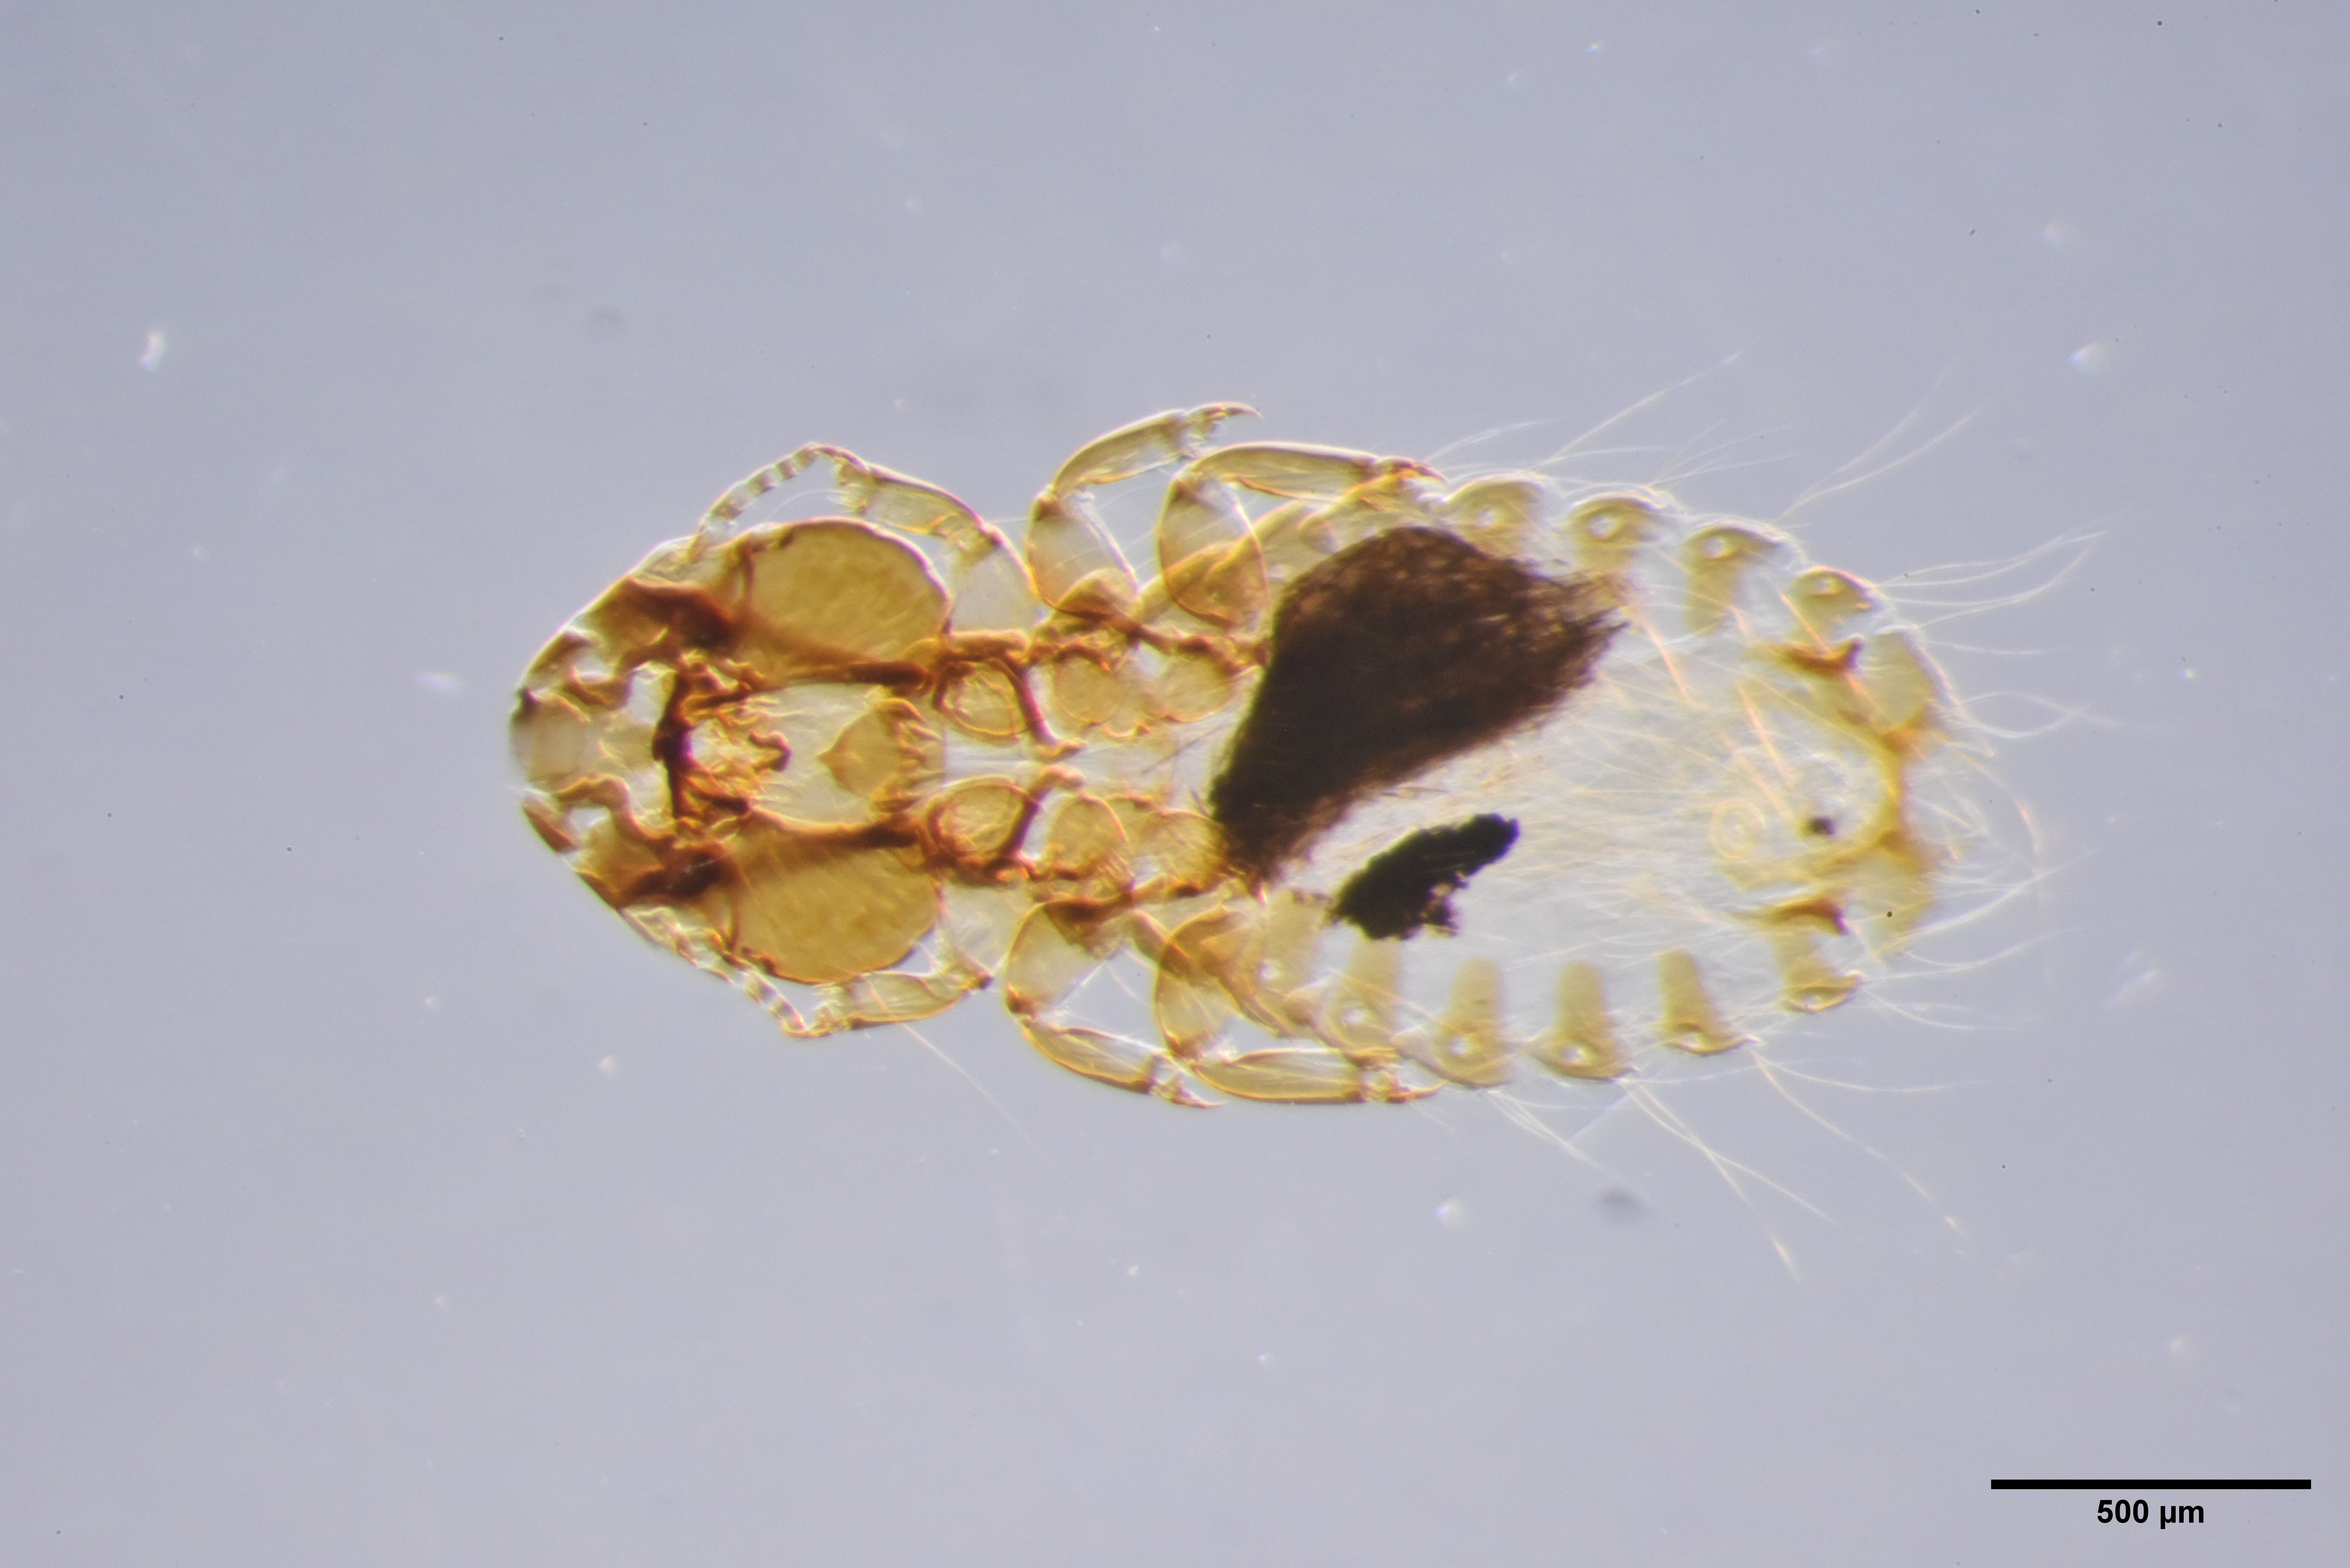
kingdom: Animalia
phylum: Arthropoda
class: Insecta
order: Psocodea
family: Philopteridae
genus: Strigiphilus
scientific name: Strigiphilus syrnii
